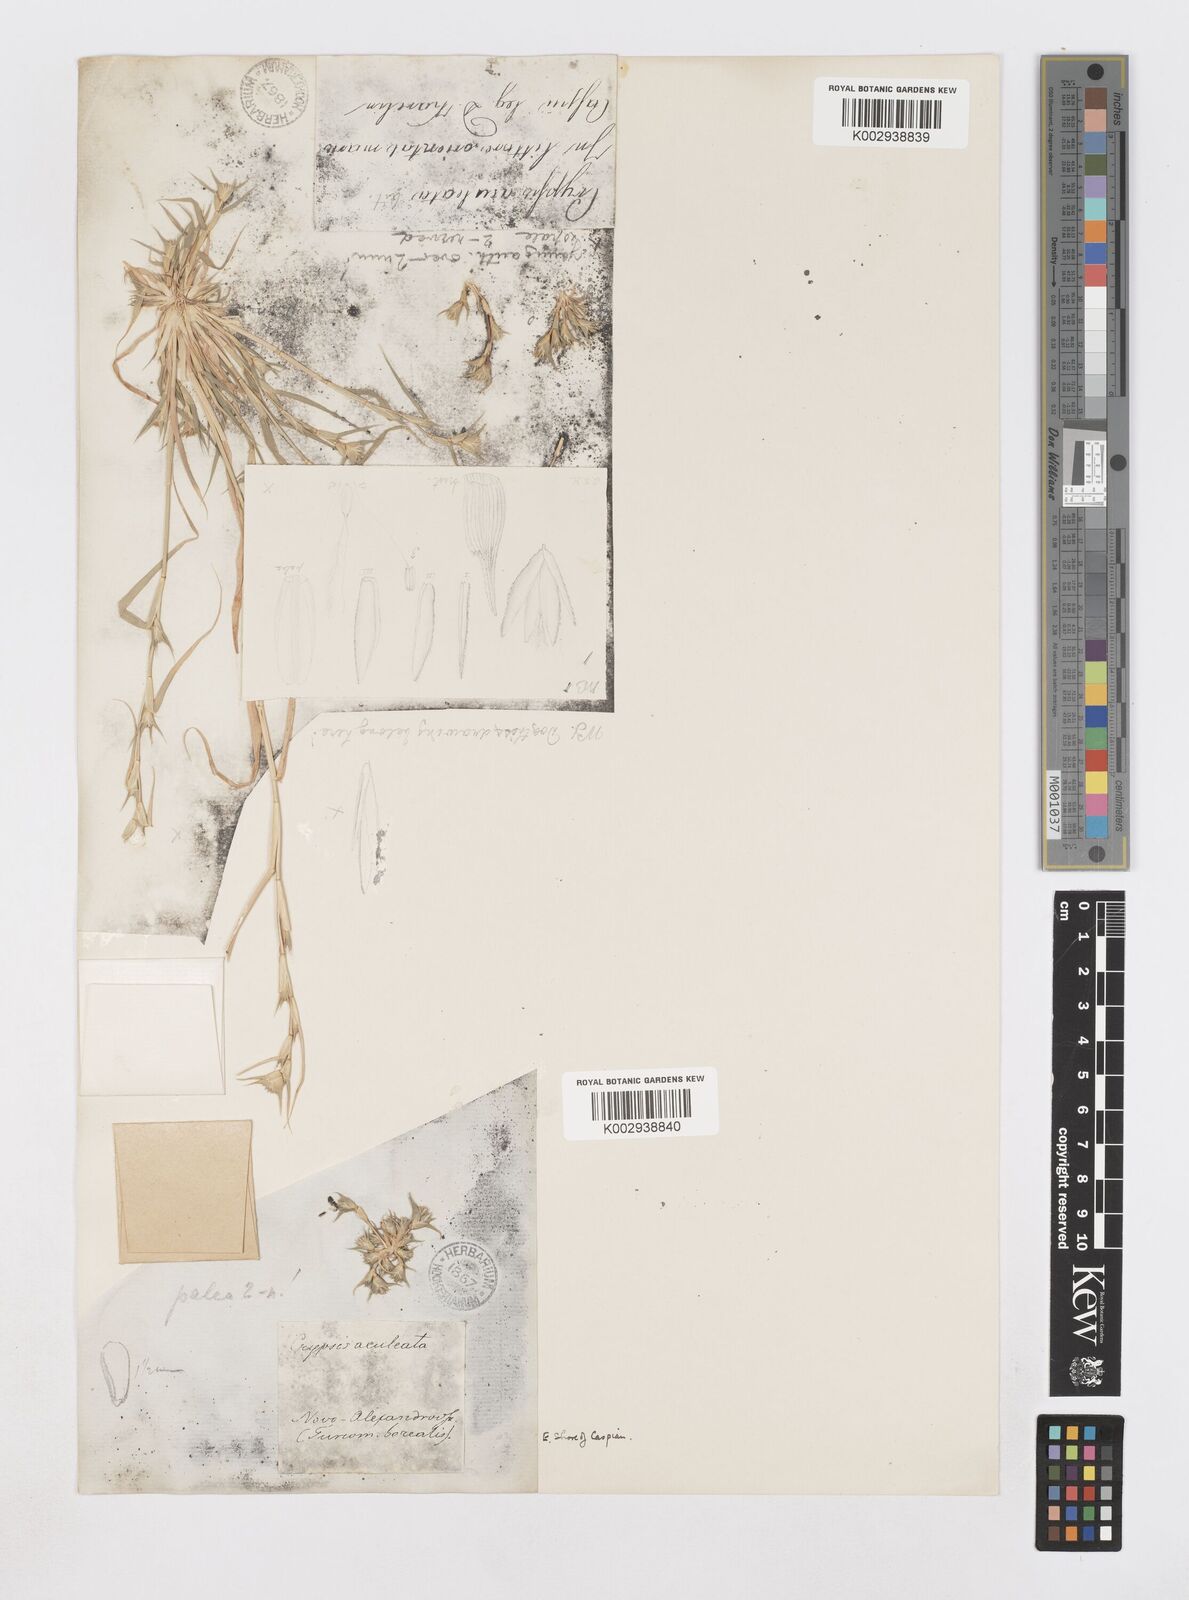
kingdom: Plantae
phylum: Tracheophyta
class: Liliopsida
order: Poales
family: Poaceae
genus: Sporobolus
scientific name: Sporobolus factorovskyi
